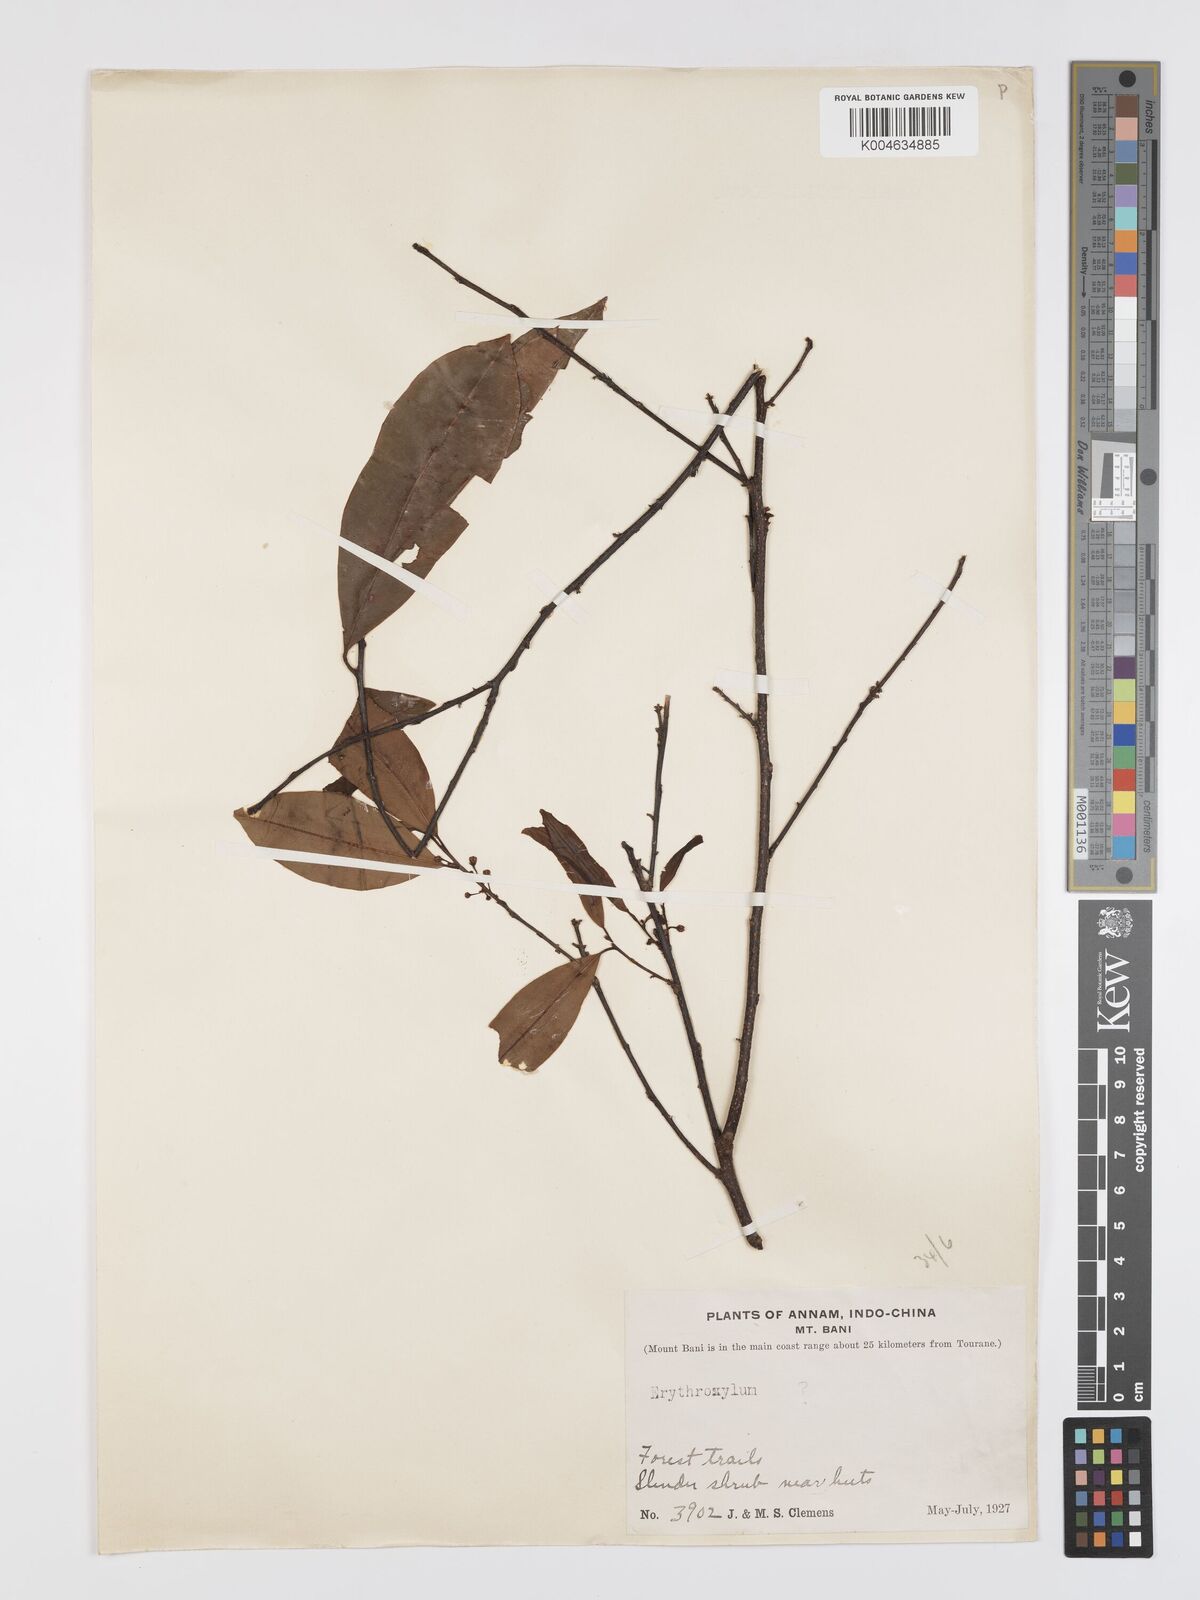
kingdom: Plantae
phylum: Tracheophyta
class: Magnoliopsida
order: Malpighiales
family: Erythroxylaceae
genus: Erythroxylum
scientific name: Erythroxylum
